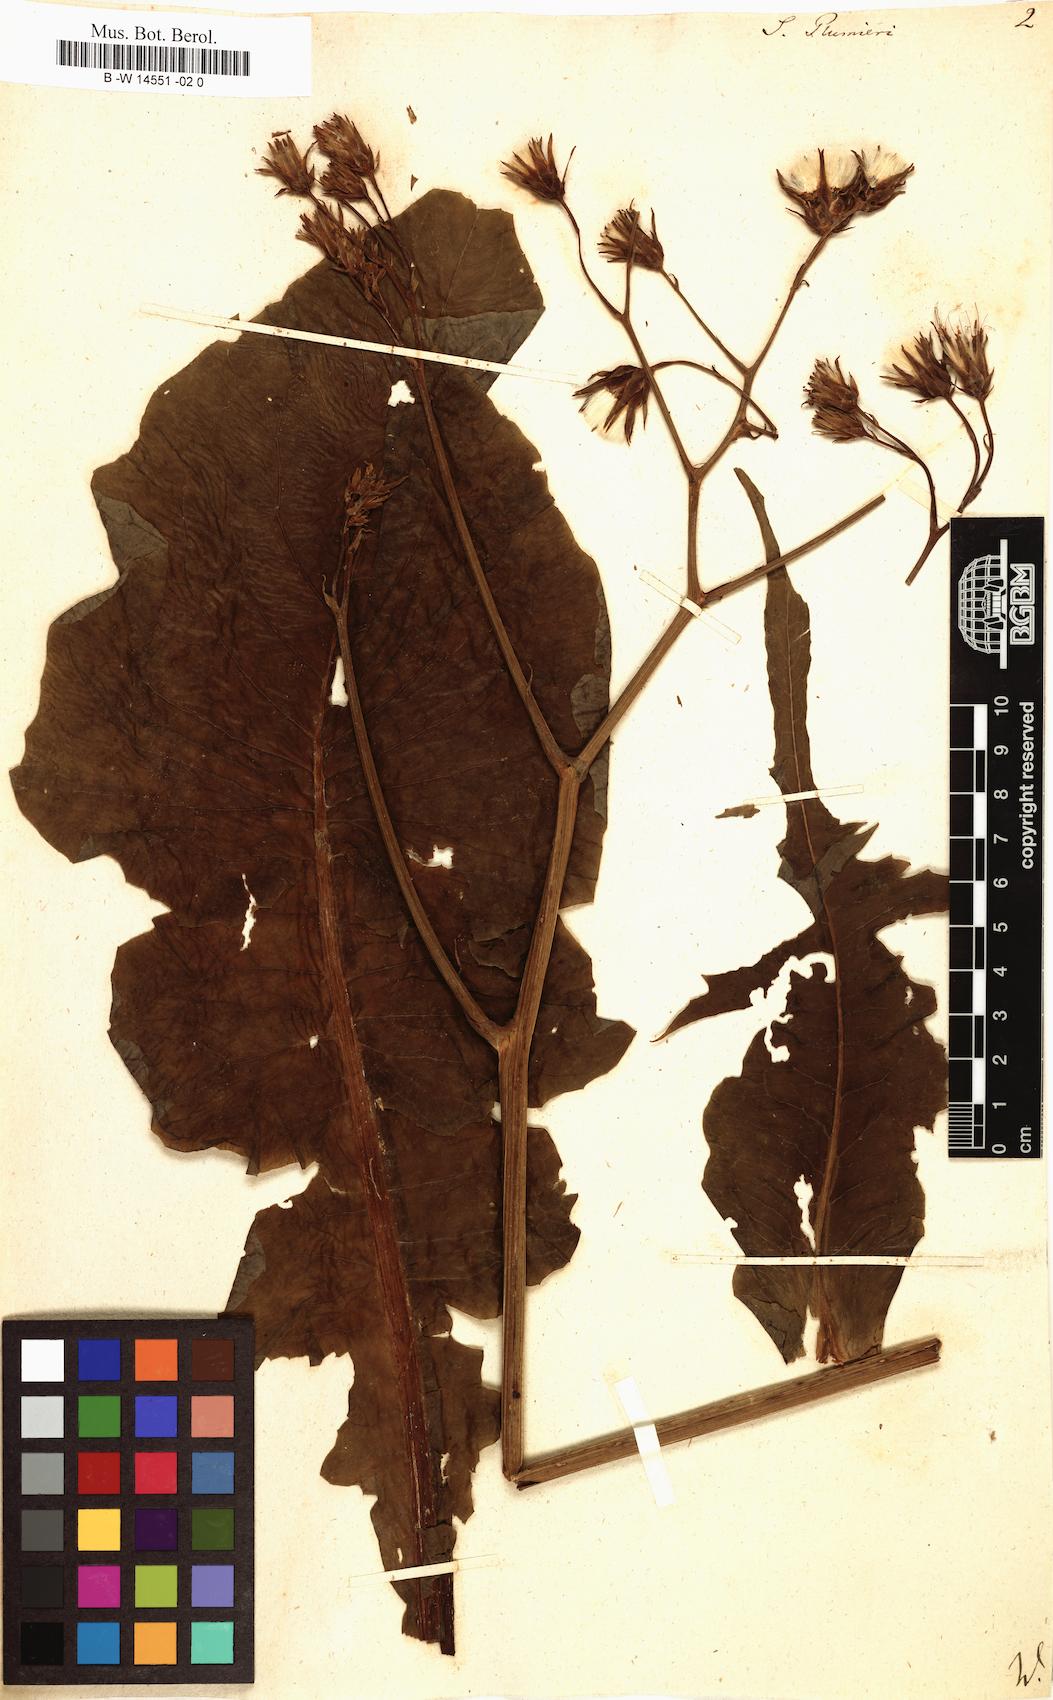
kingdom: Plantae
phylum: Tracheophyta
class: Magnoliopsida
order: Asterales
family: Asteraceae
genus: Sonchus
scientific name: Sonchus plumieri
